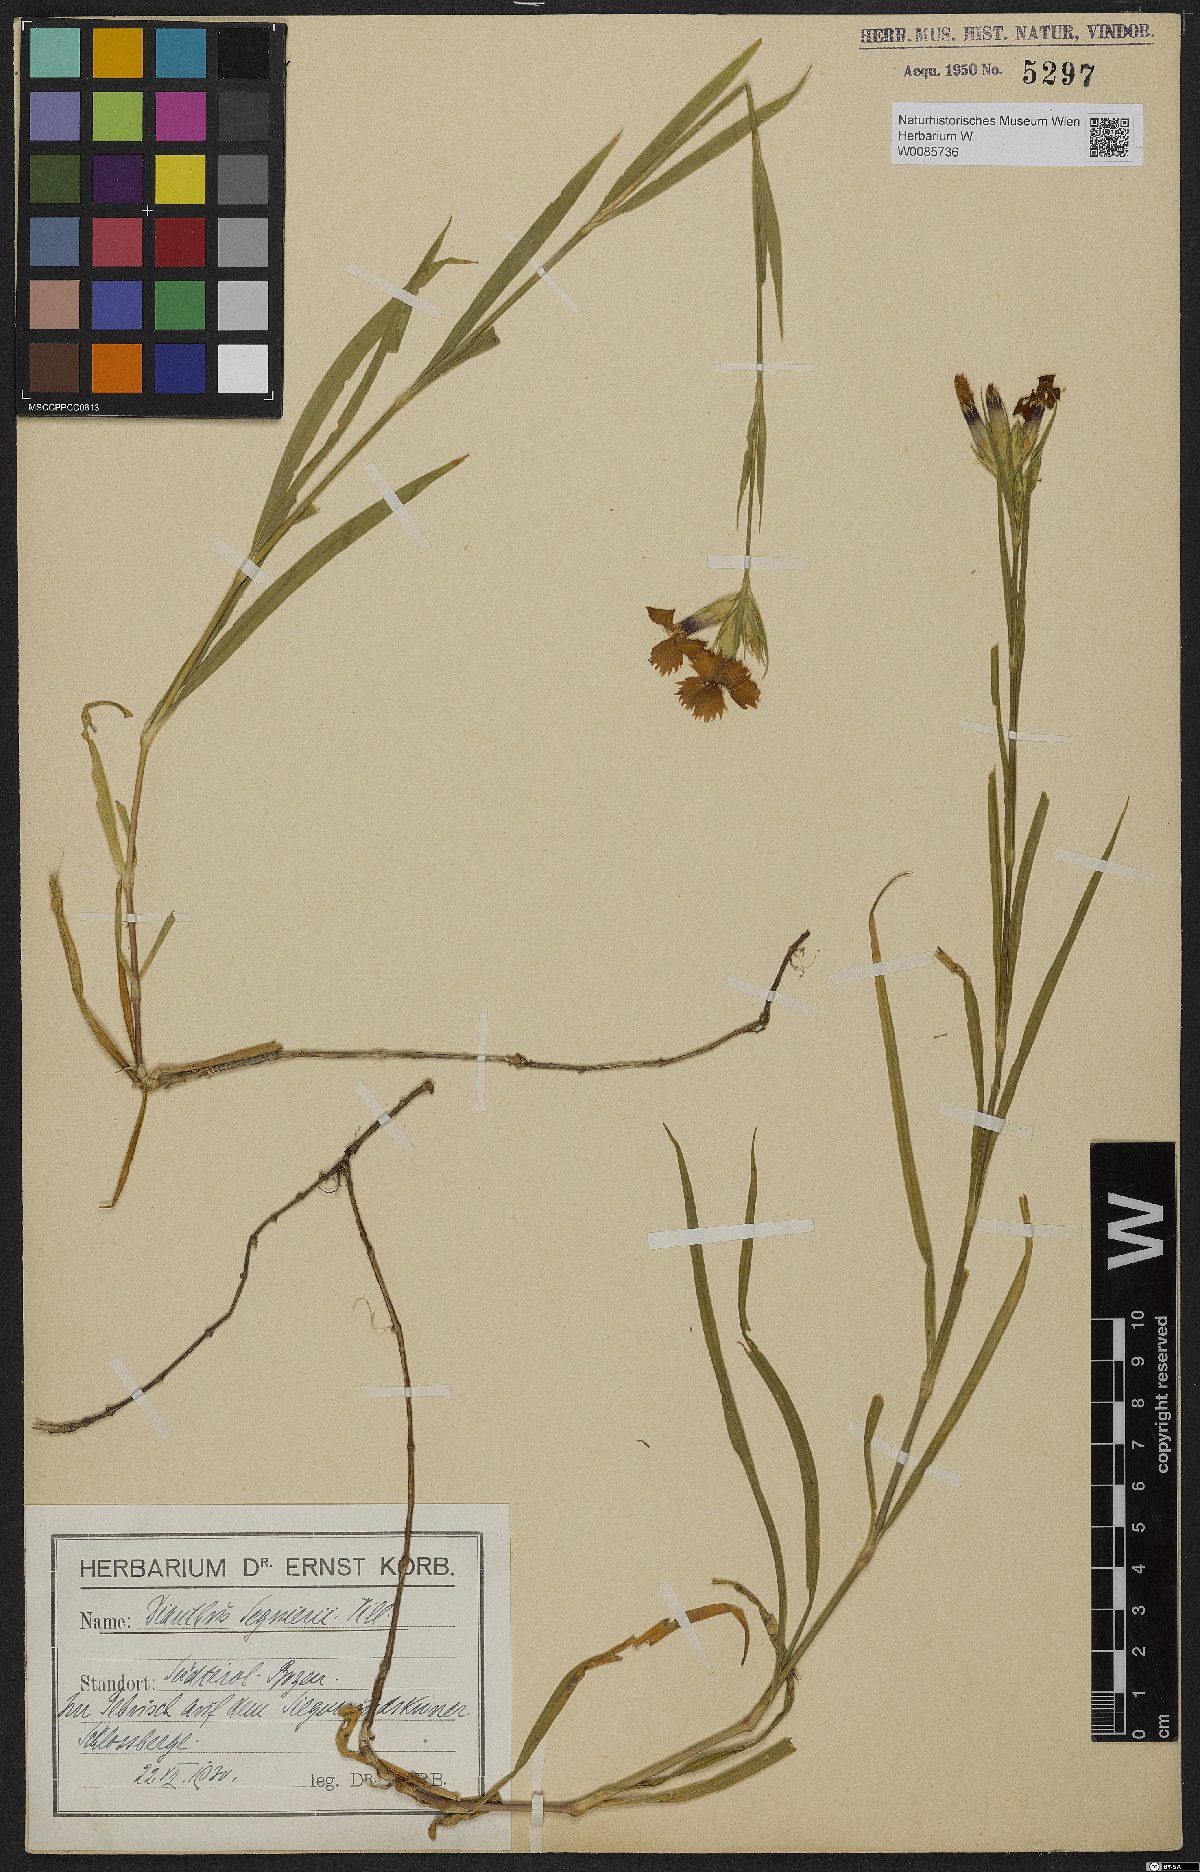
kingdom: Plantae
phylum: Tracheophyta
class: Magnoliopsida
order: Caryophyllales
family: Caryophyllaceae
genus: Dianthus
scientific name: Dianthus seguieri
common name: Ragged pink
